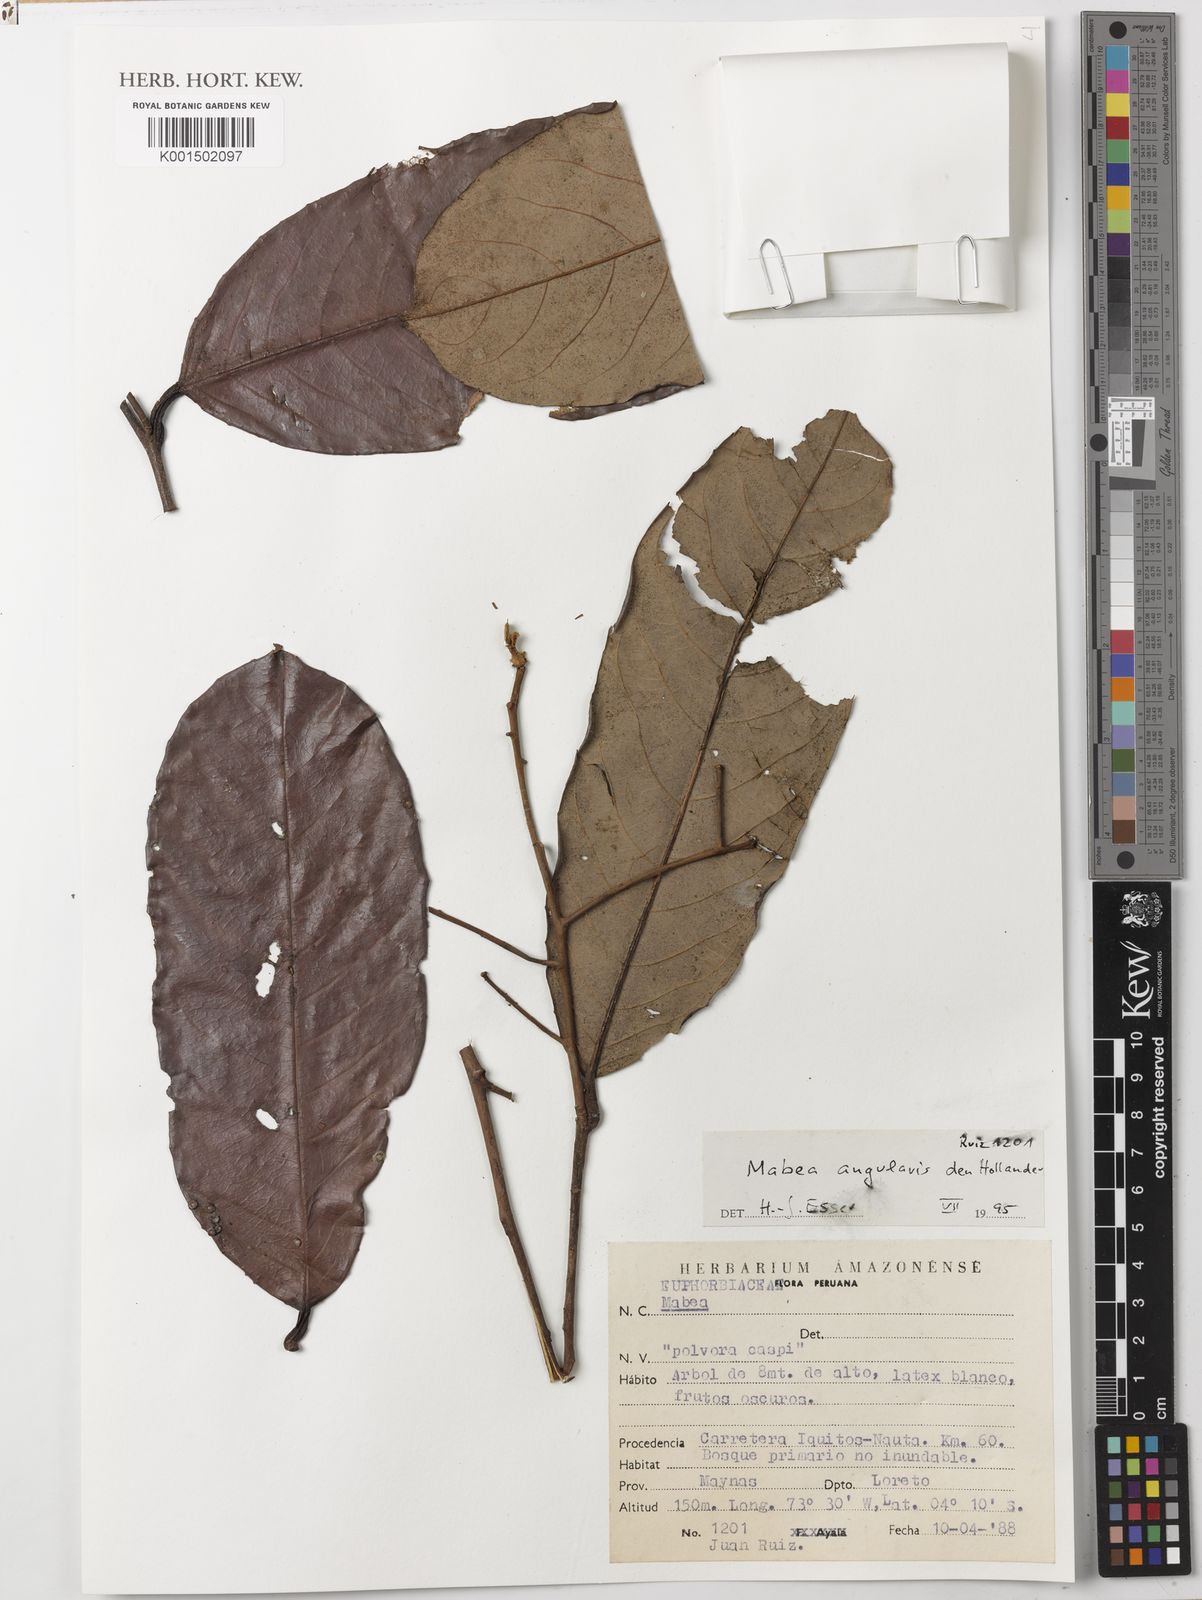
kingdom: Plantae
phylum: Tracheophyta
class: Magnoliopsida
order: Malpighiales
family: Euphorbiaceae
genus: Mabea
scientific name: Mabea angularis
